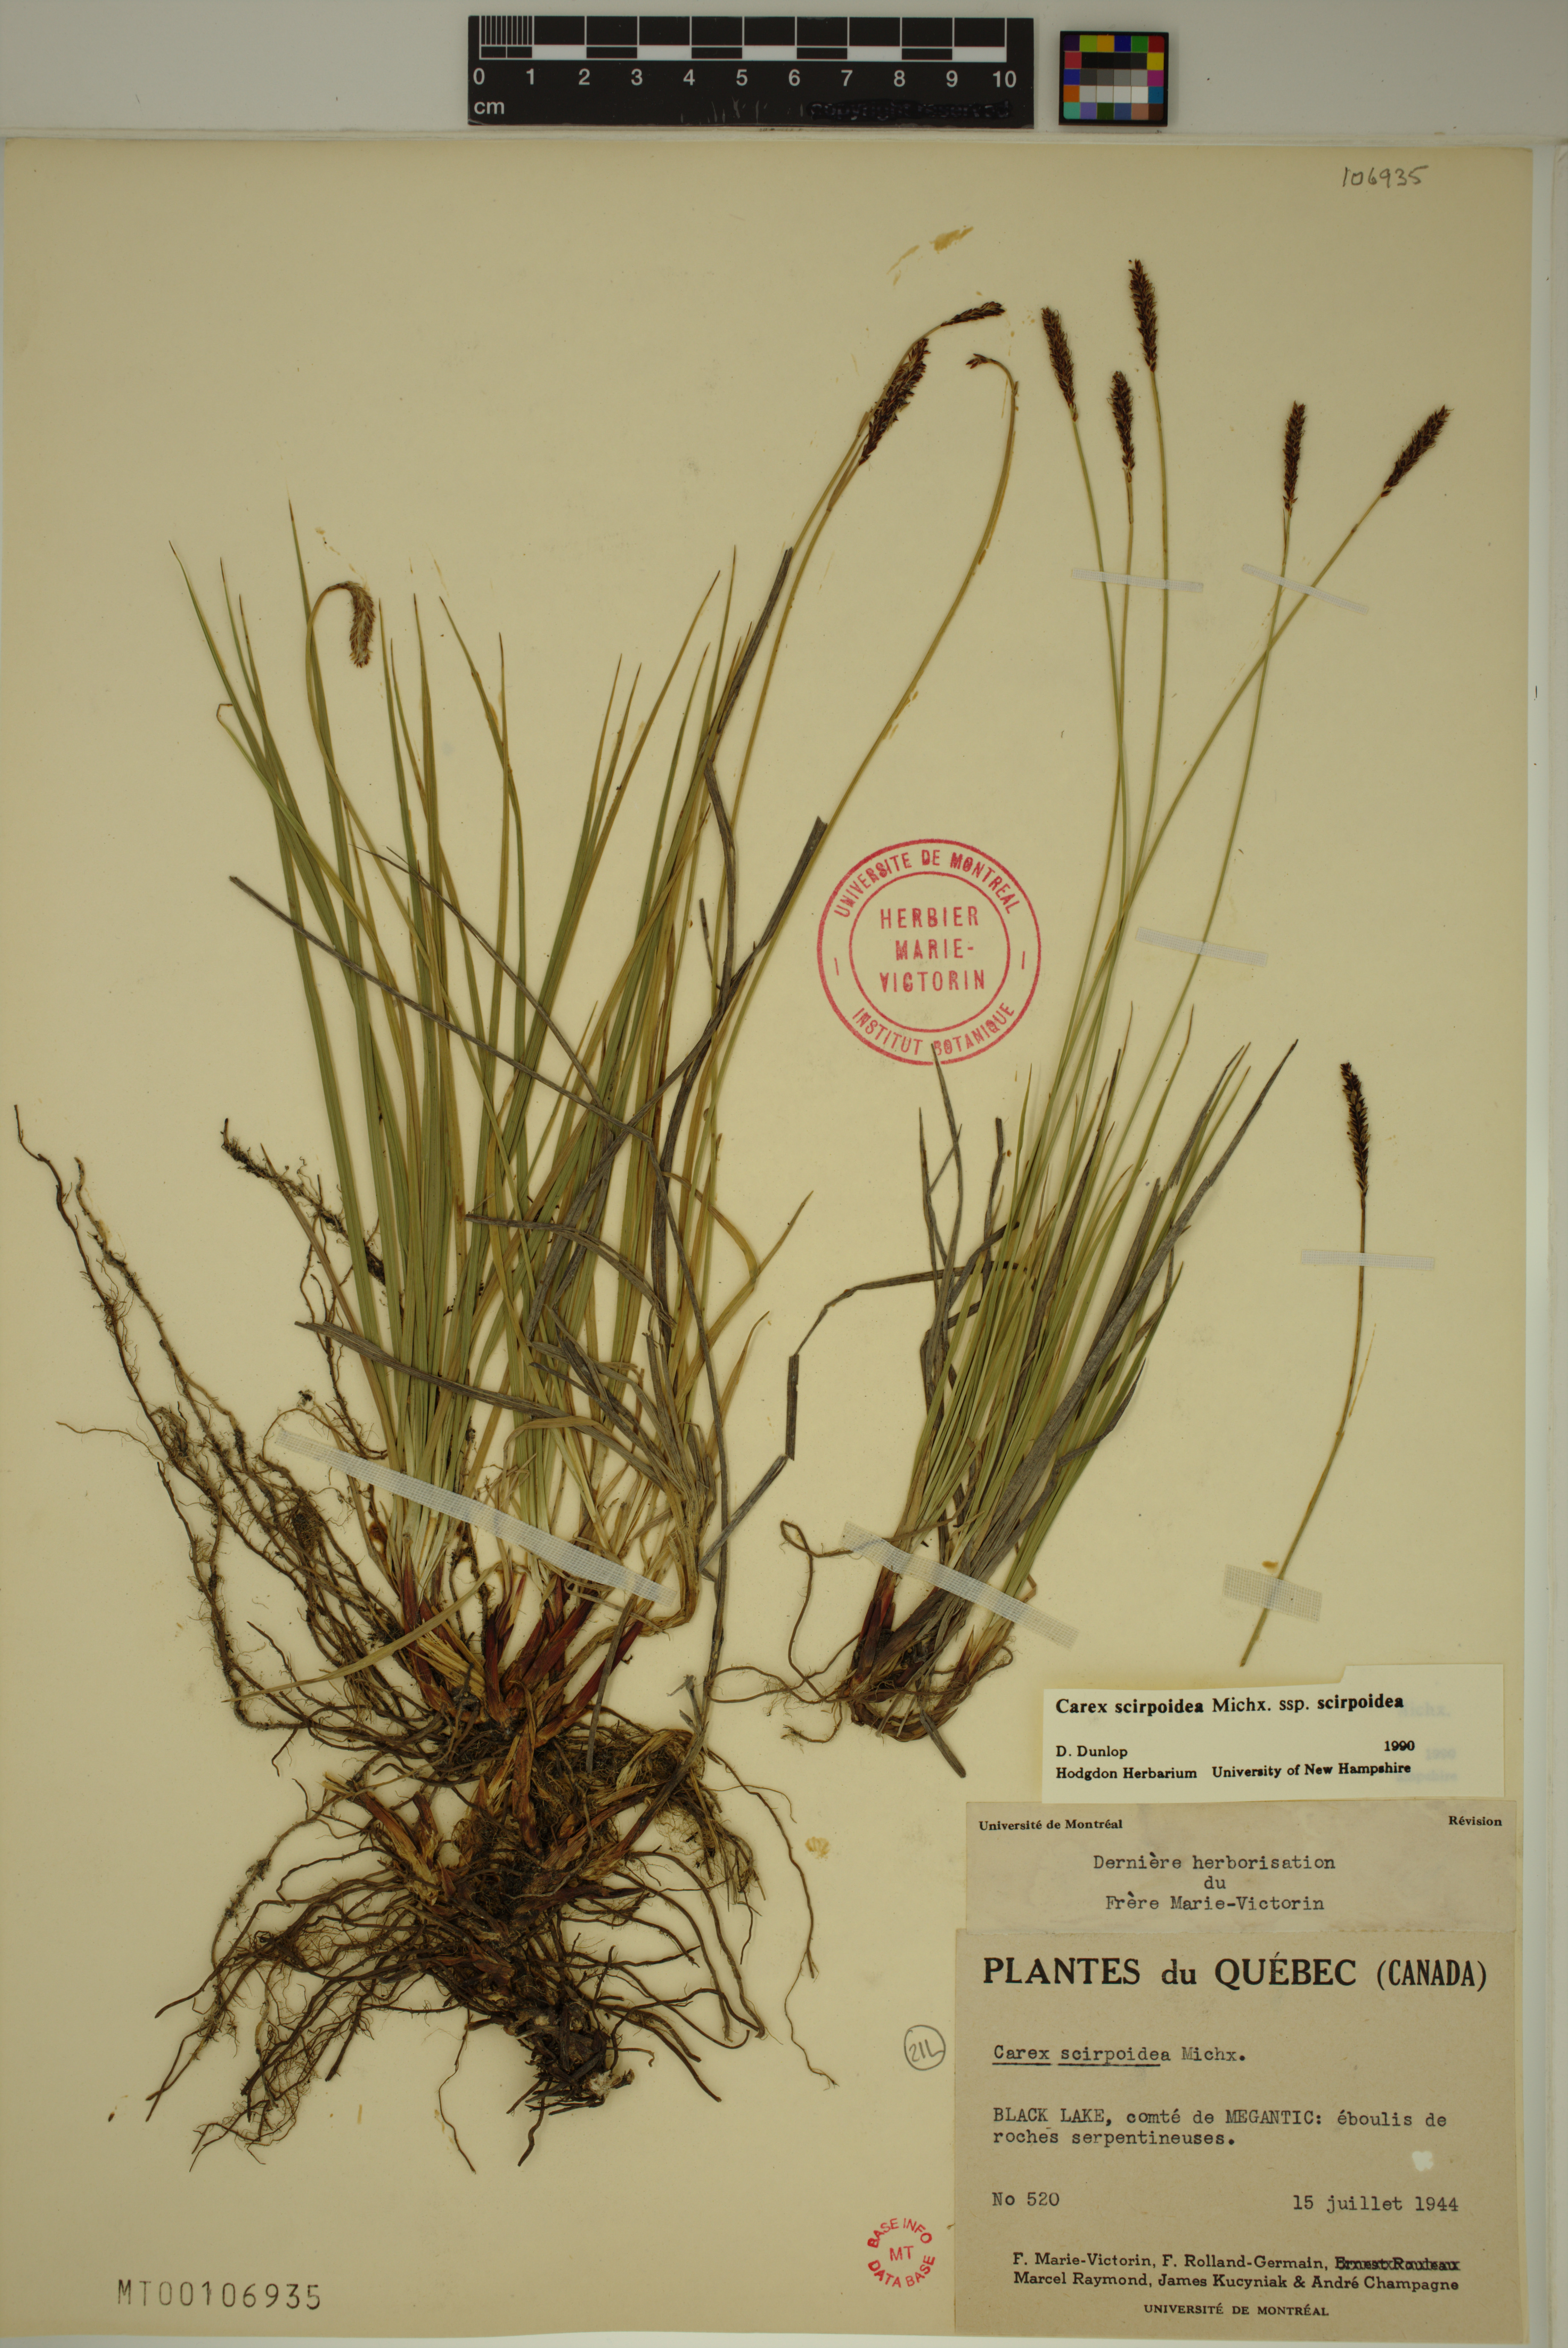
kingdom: Plantae
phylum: Tracheophyta
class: Liliopsida
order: Poales
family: Cyperaceae
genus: Carex
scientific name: Carex scirpoidea
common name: Canada single-spike sedge
